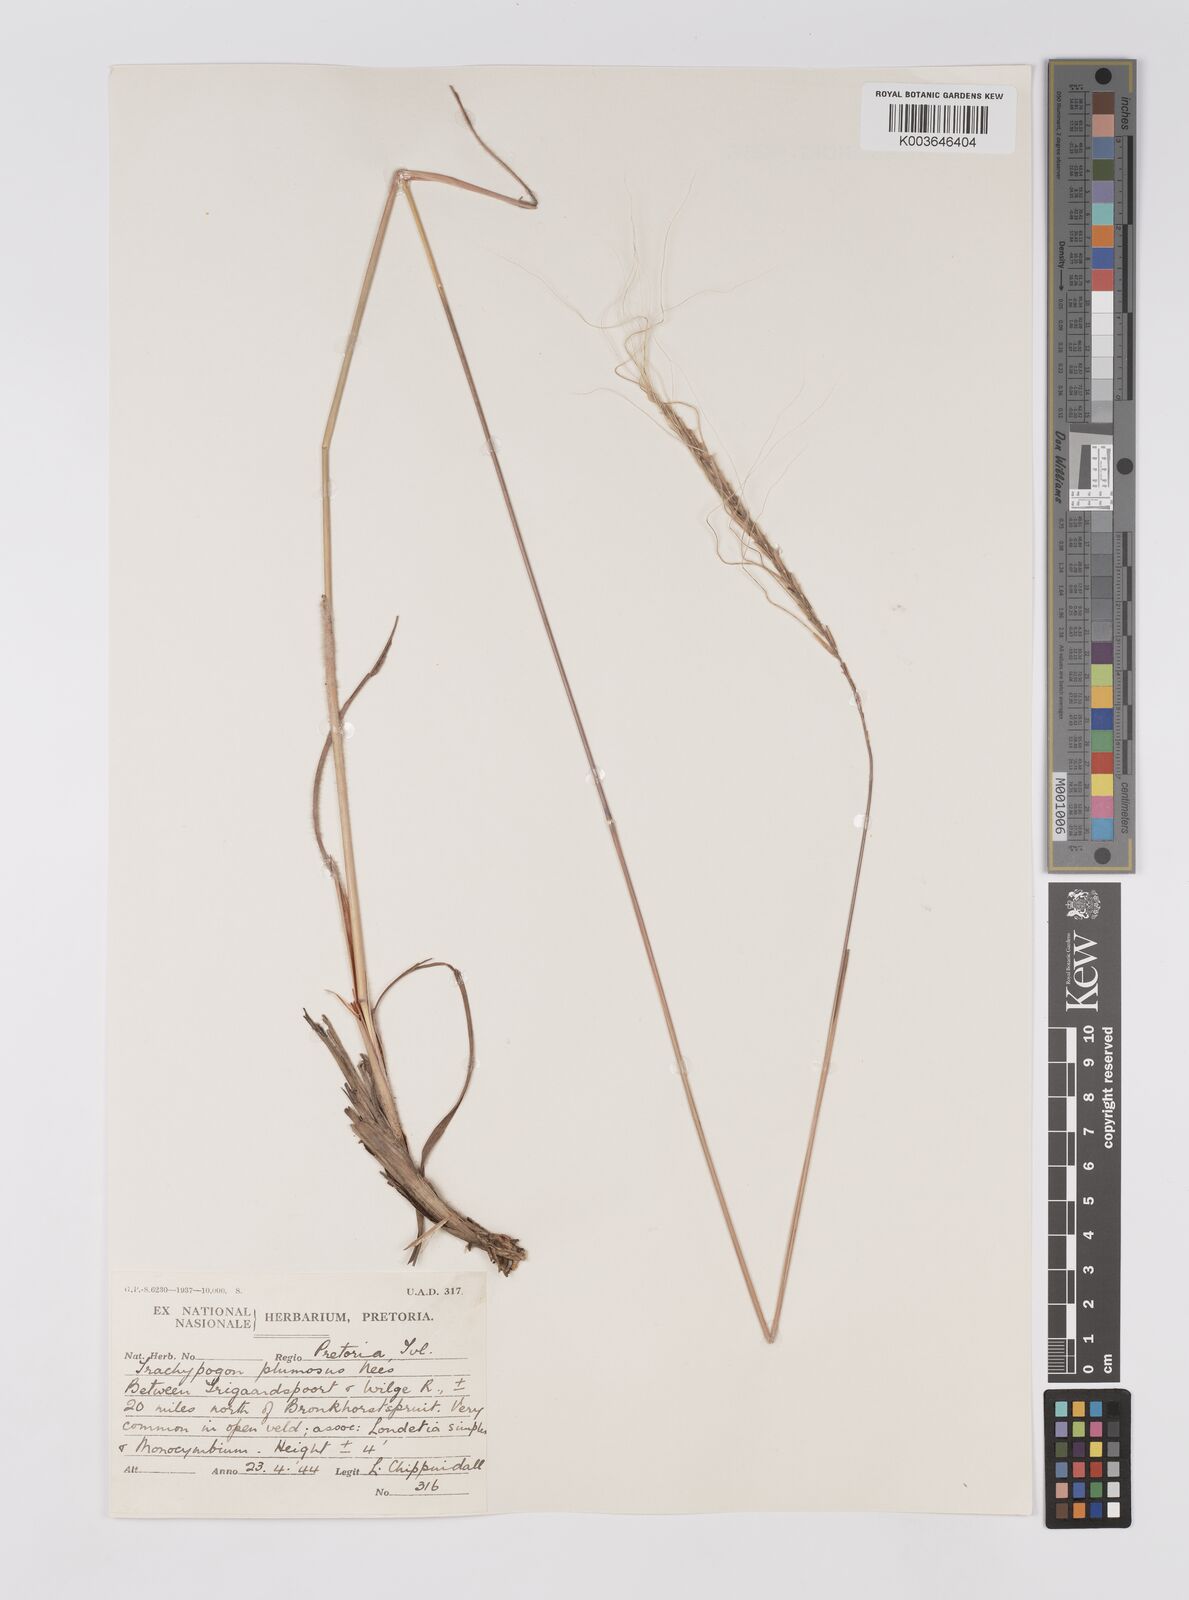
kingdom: Plantae
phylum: Tracheophyta
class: Liliopsida
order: Poales
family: Poaceae
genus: Trachypogon
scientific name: Trachypogon spicatus
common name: Crinkle-awn
